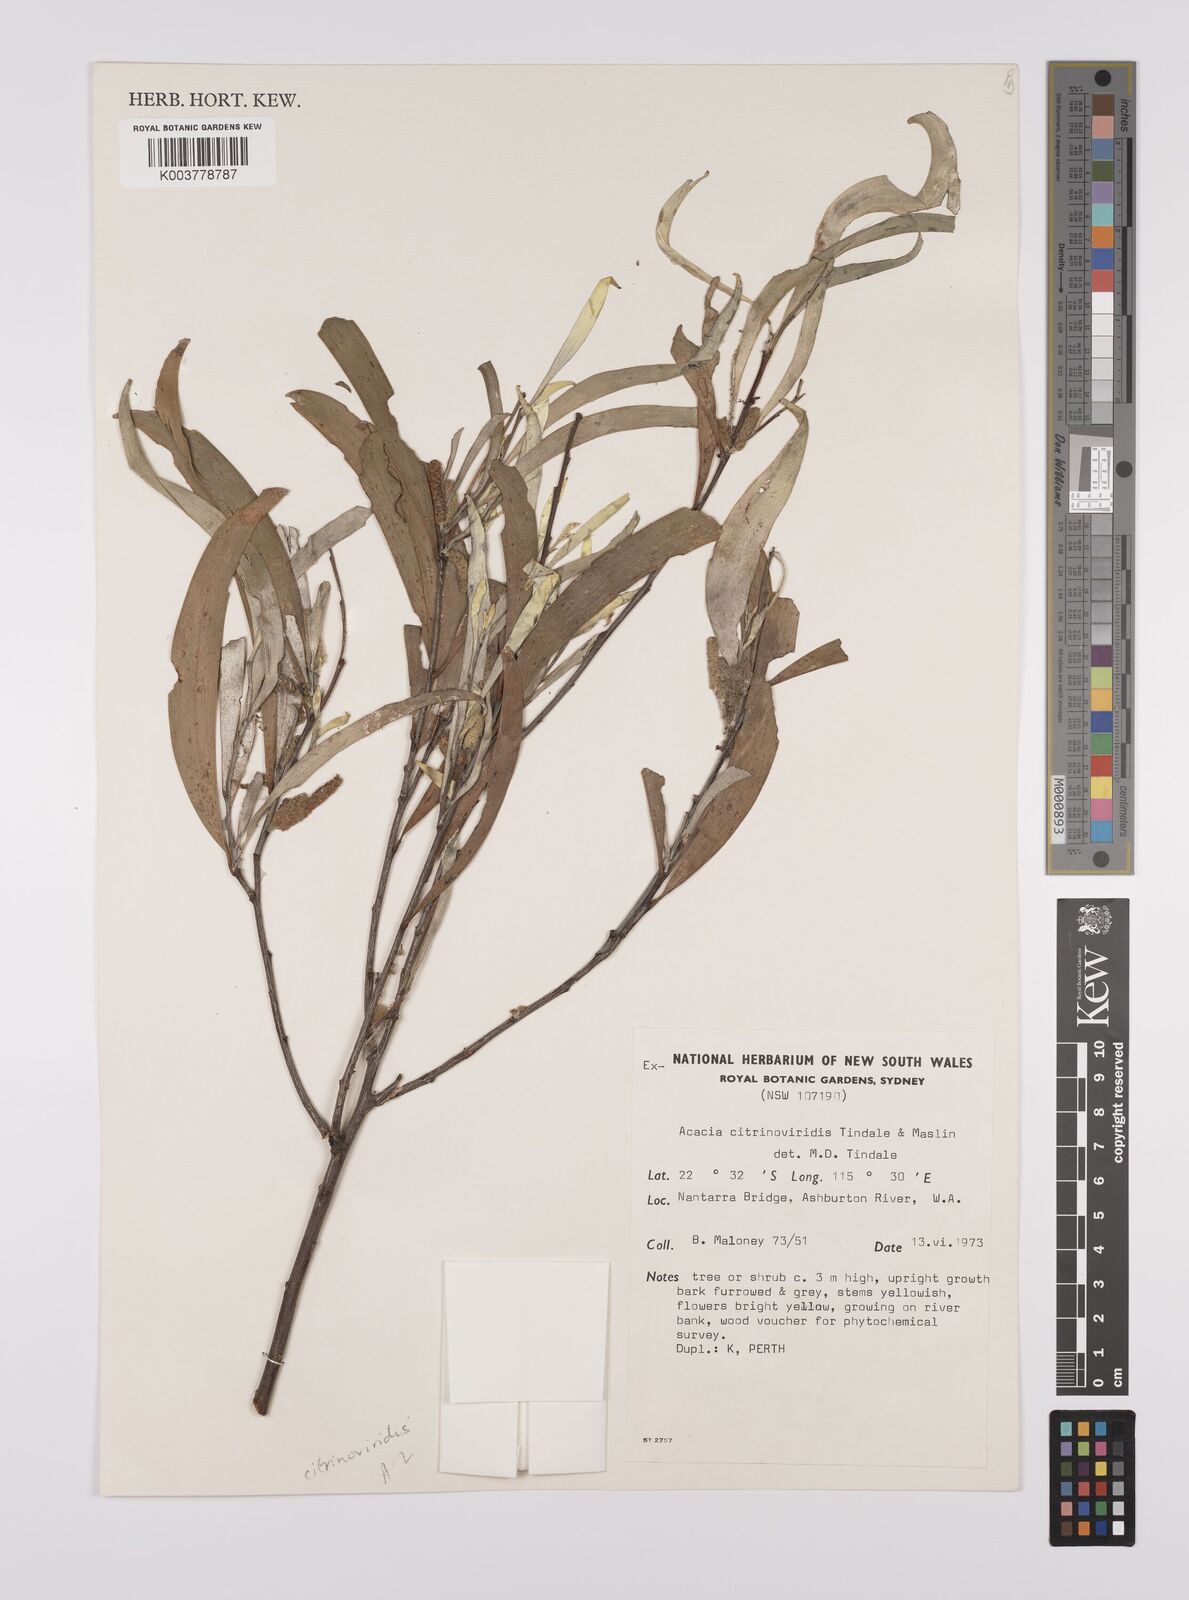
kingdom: Plantae
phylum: Tracheophyta
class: Magnoliopsida
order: Fabales
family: Fabaceae
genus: Acacia
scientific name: Acacia citrinoviridis
